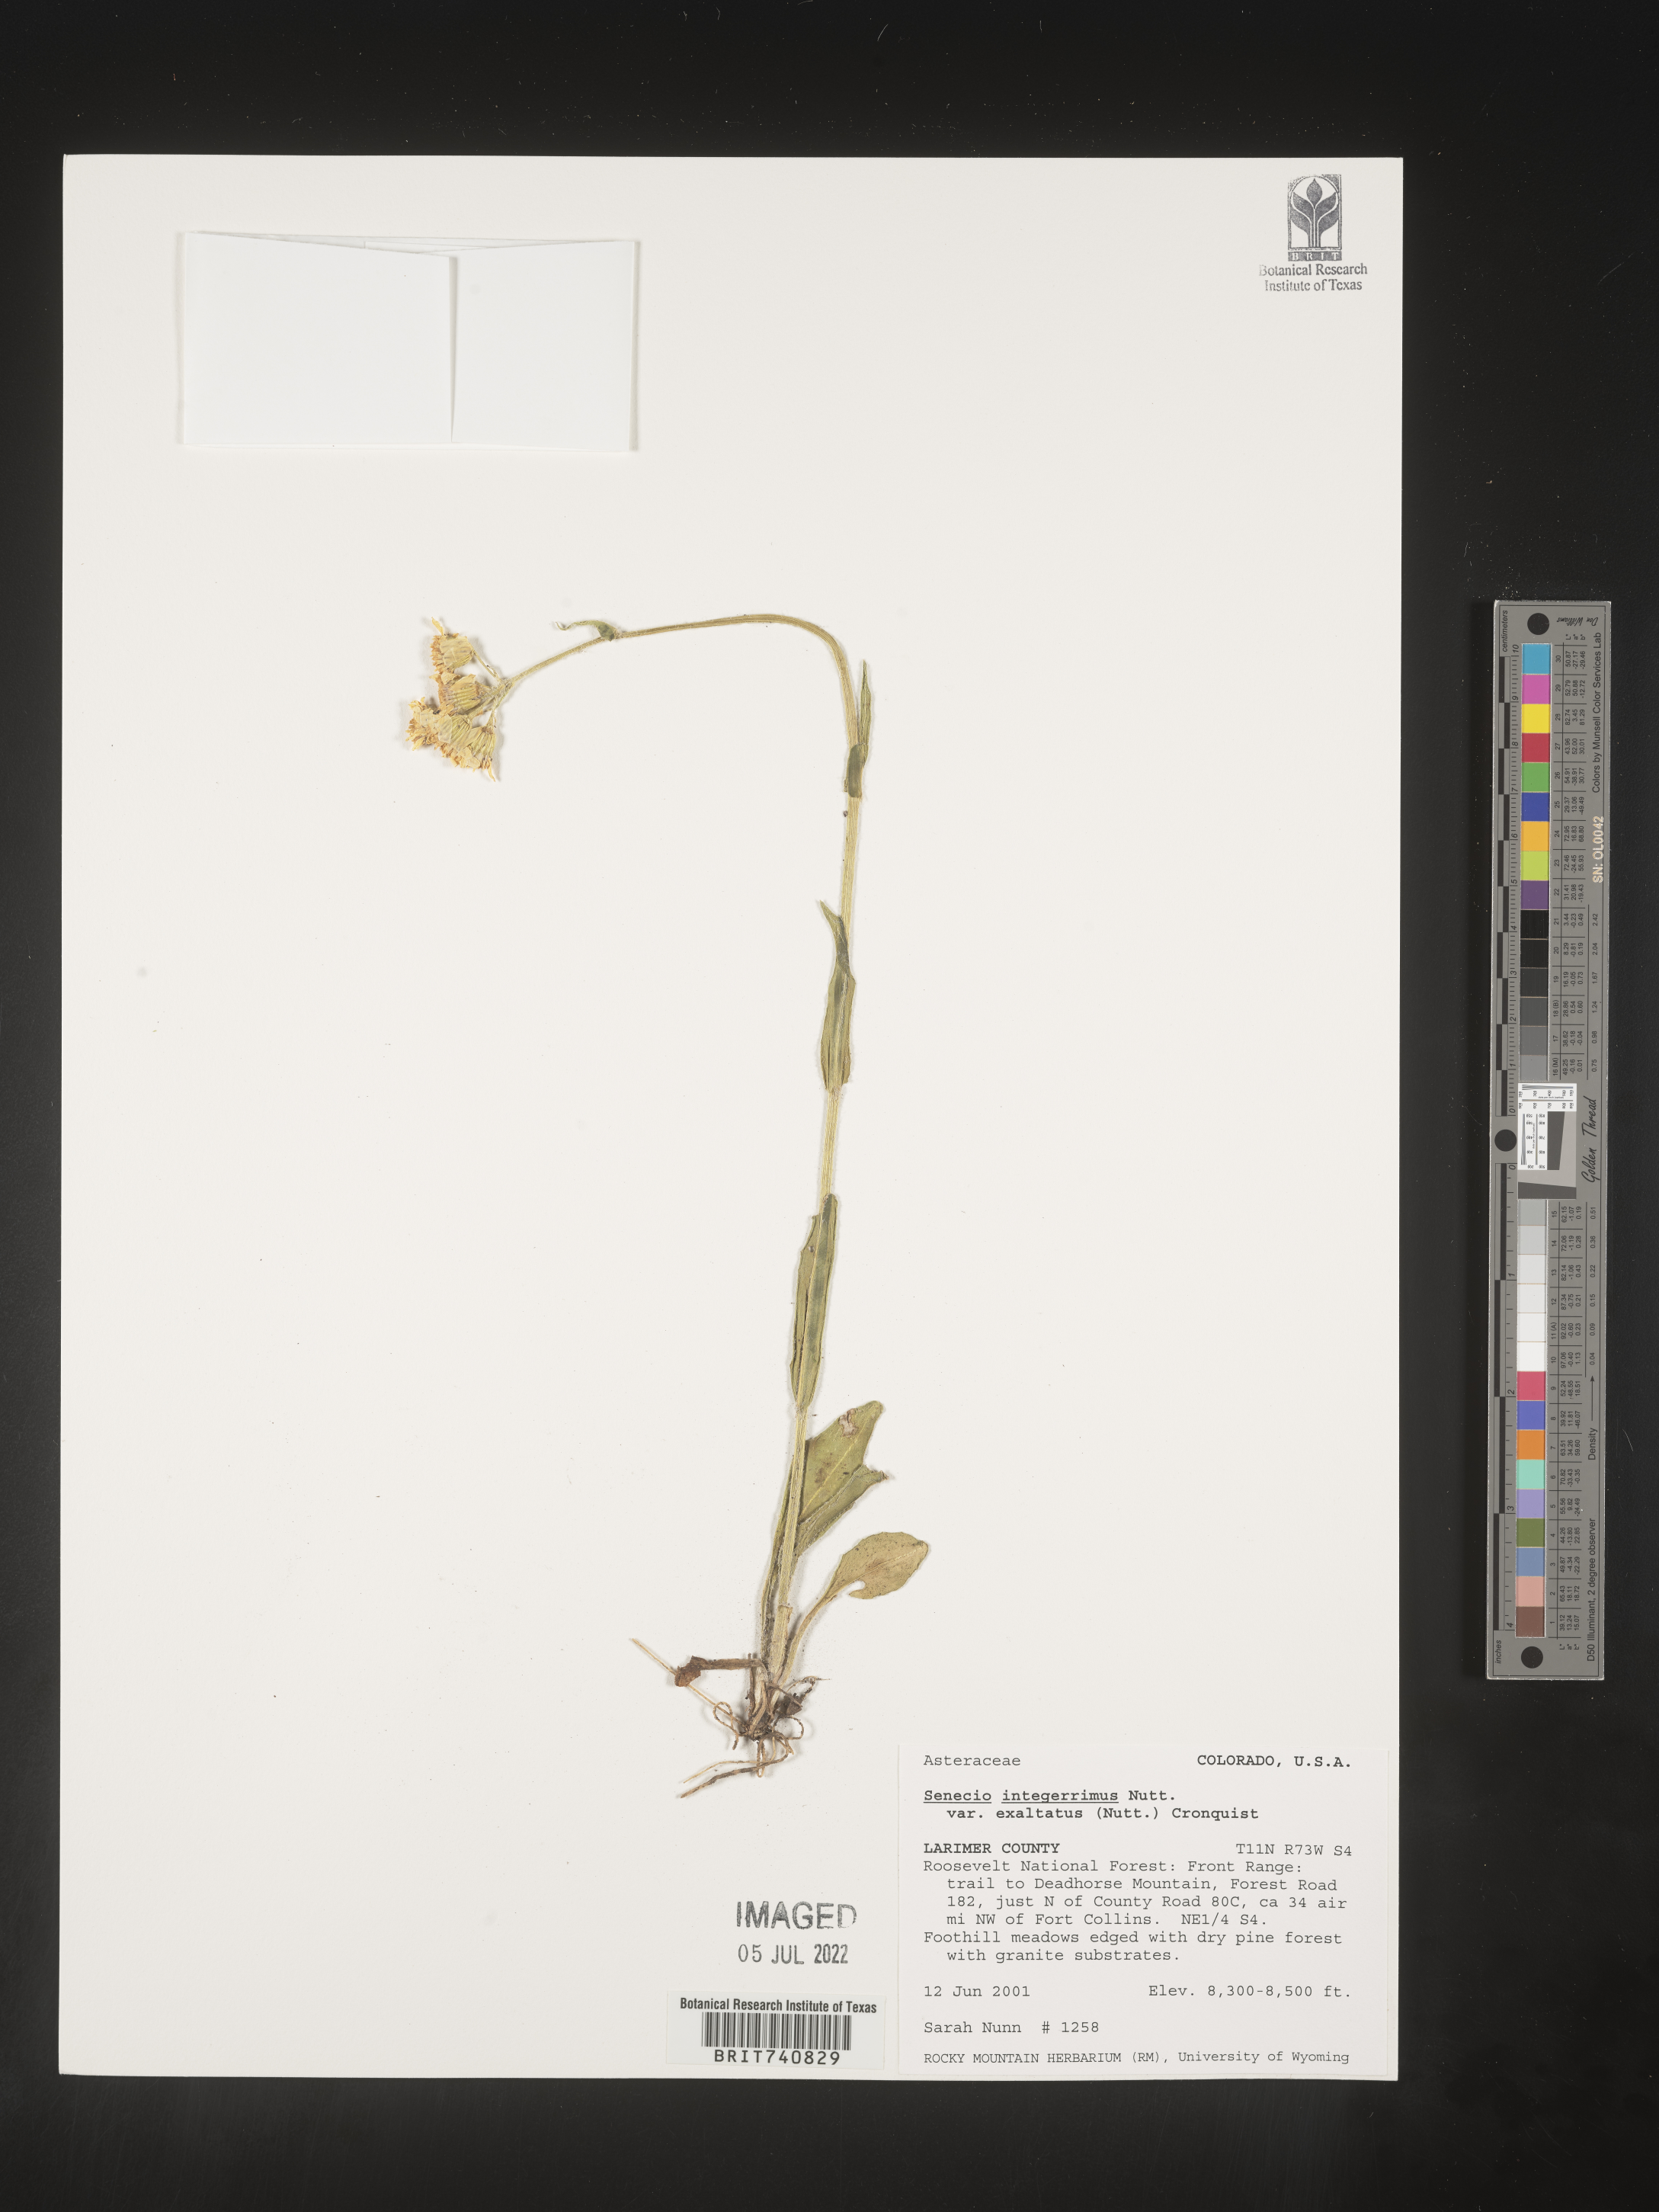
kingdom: Plantae
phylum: Tracheophyta
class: Magnoliopsida
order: Asterales
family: Asteraceae
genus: Senecio
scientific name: Senecio integerrimus
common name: Gaugeplant
